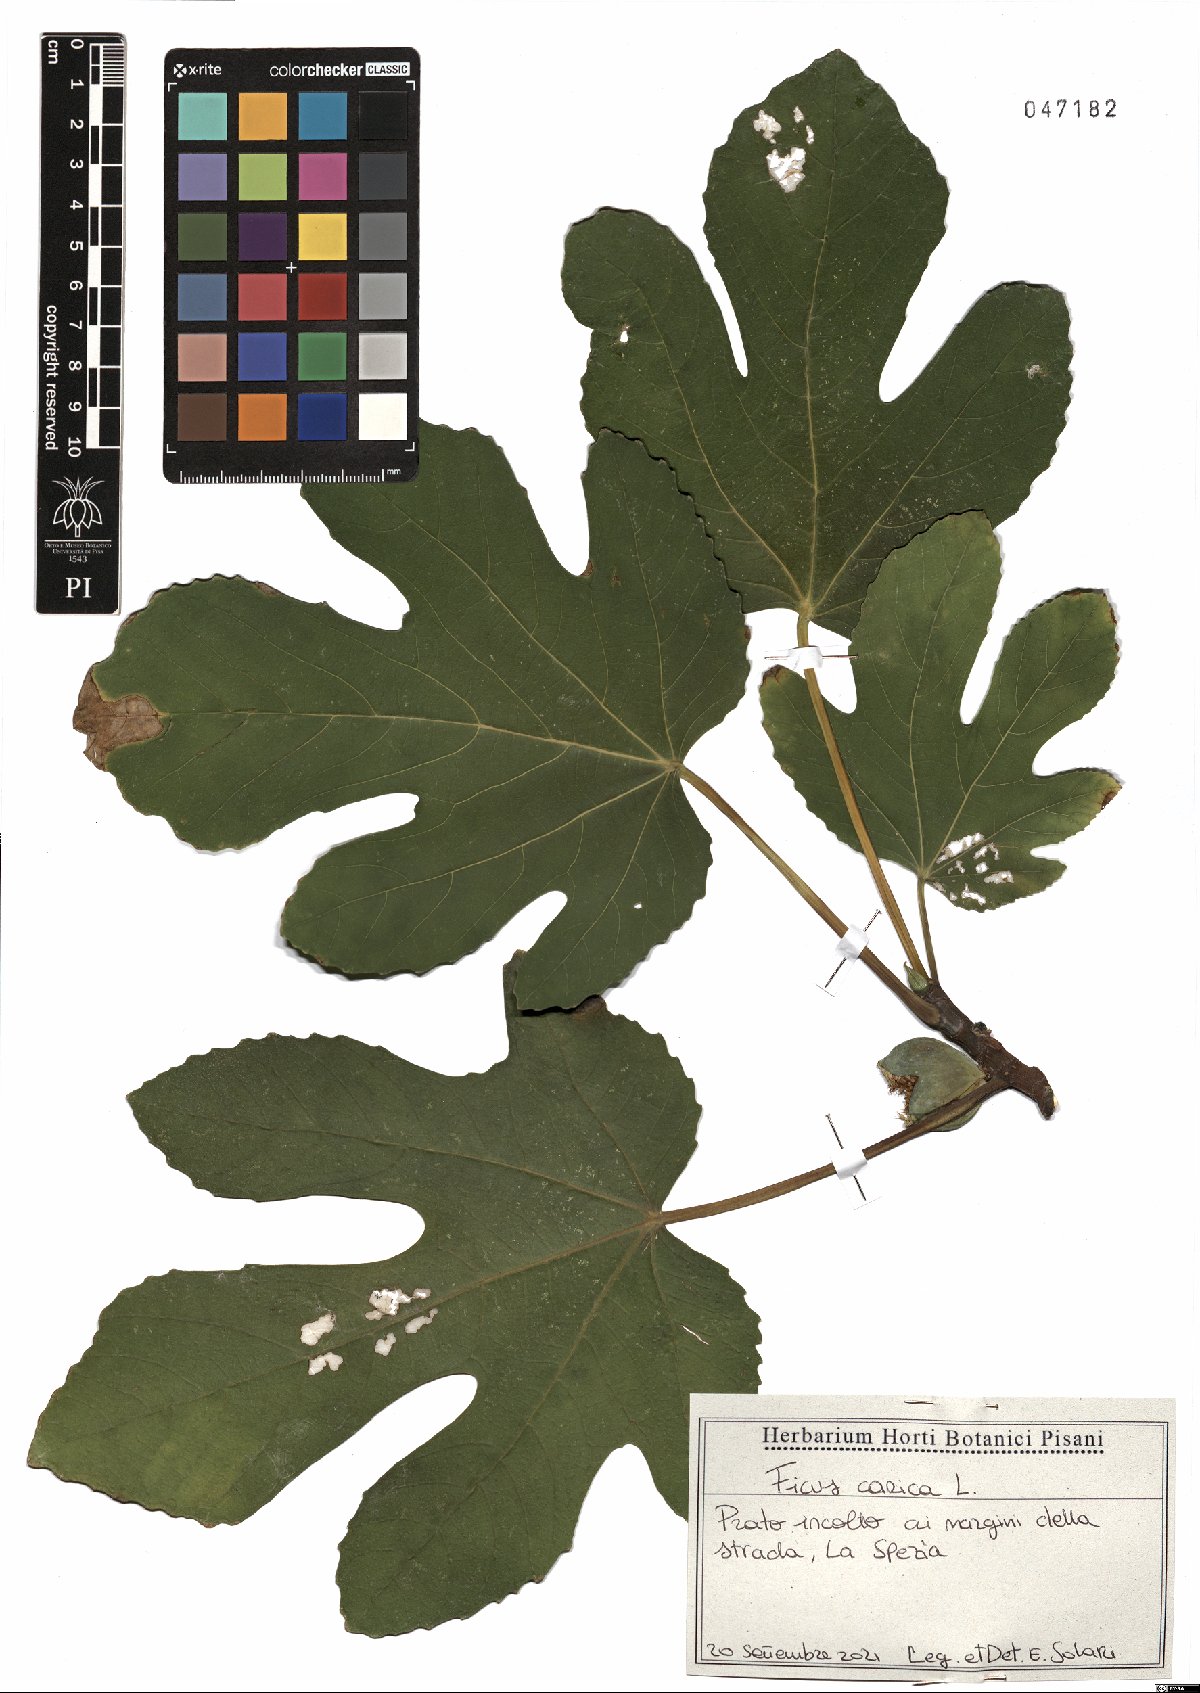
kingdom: Plantae
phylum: Tracheophyta
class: Magnoliopsida
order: Rosales
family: Moraceae
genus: Ficus
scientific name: Ficus carica
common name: Fig
